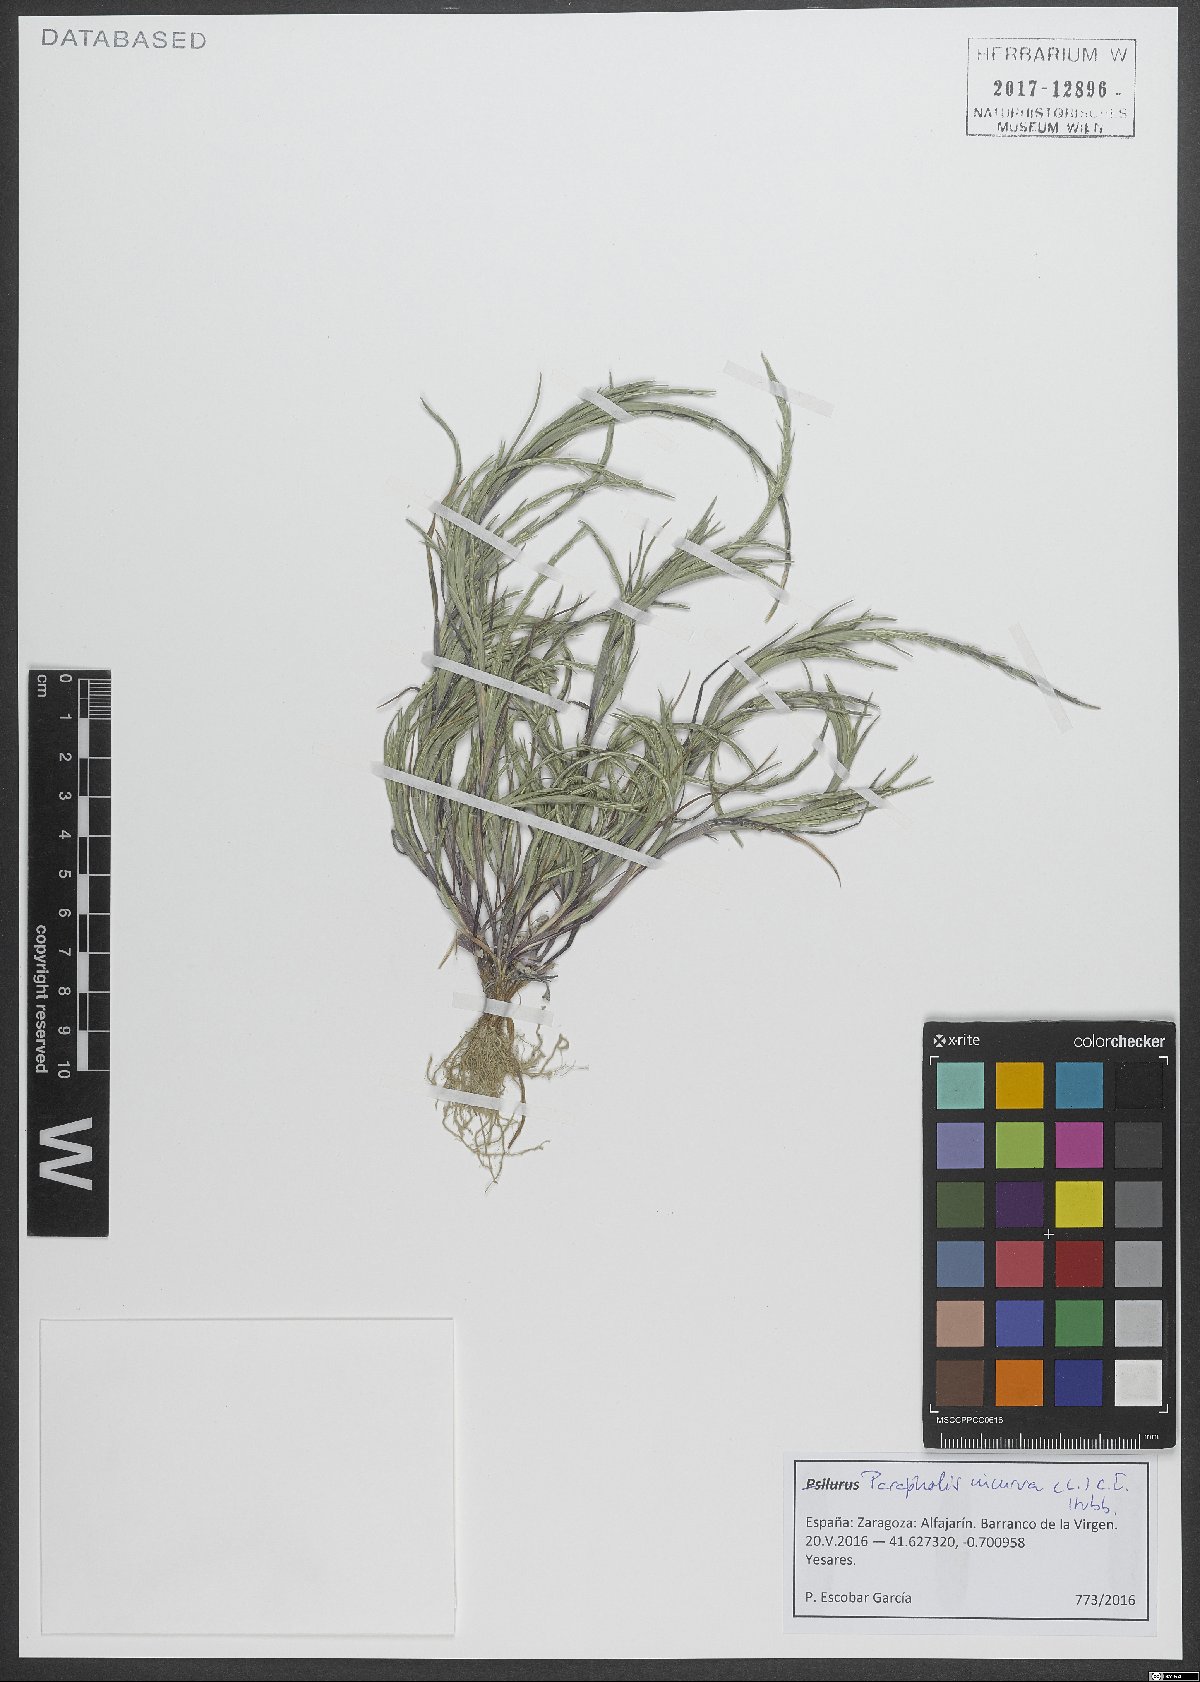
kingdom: Plantae
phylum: Tracheophyta
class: Liliopsida
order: Poales
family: Poaceae
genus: Parapholis
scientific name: Parapholis incurva
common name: Curved sicklegrass
